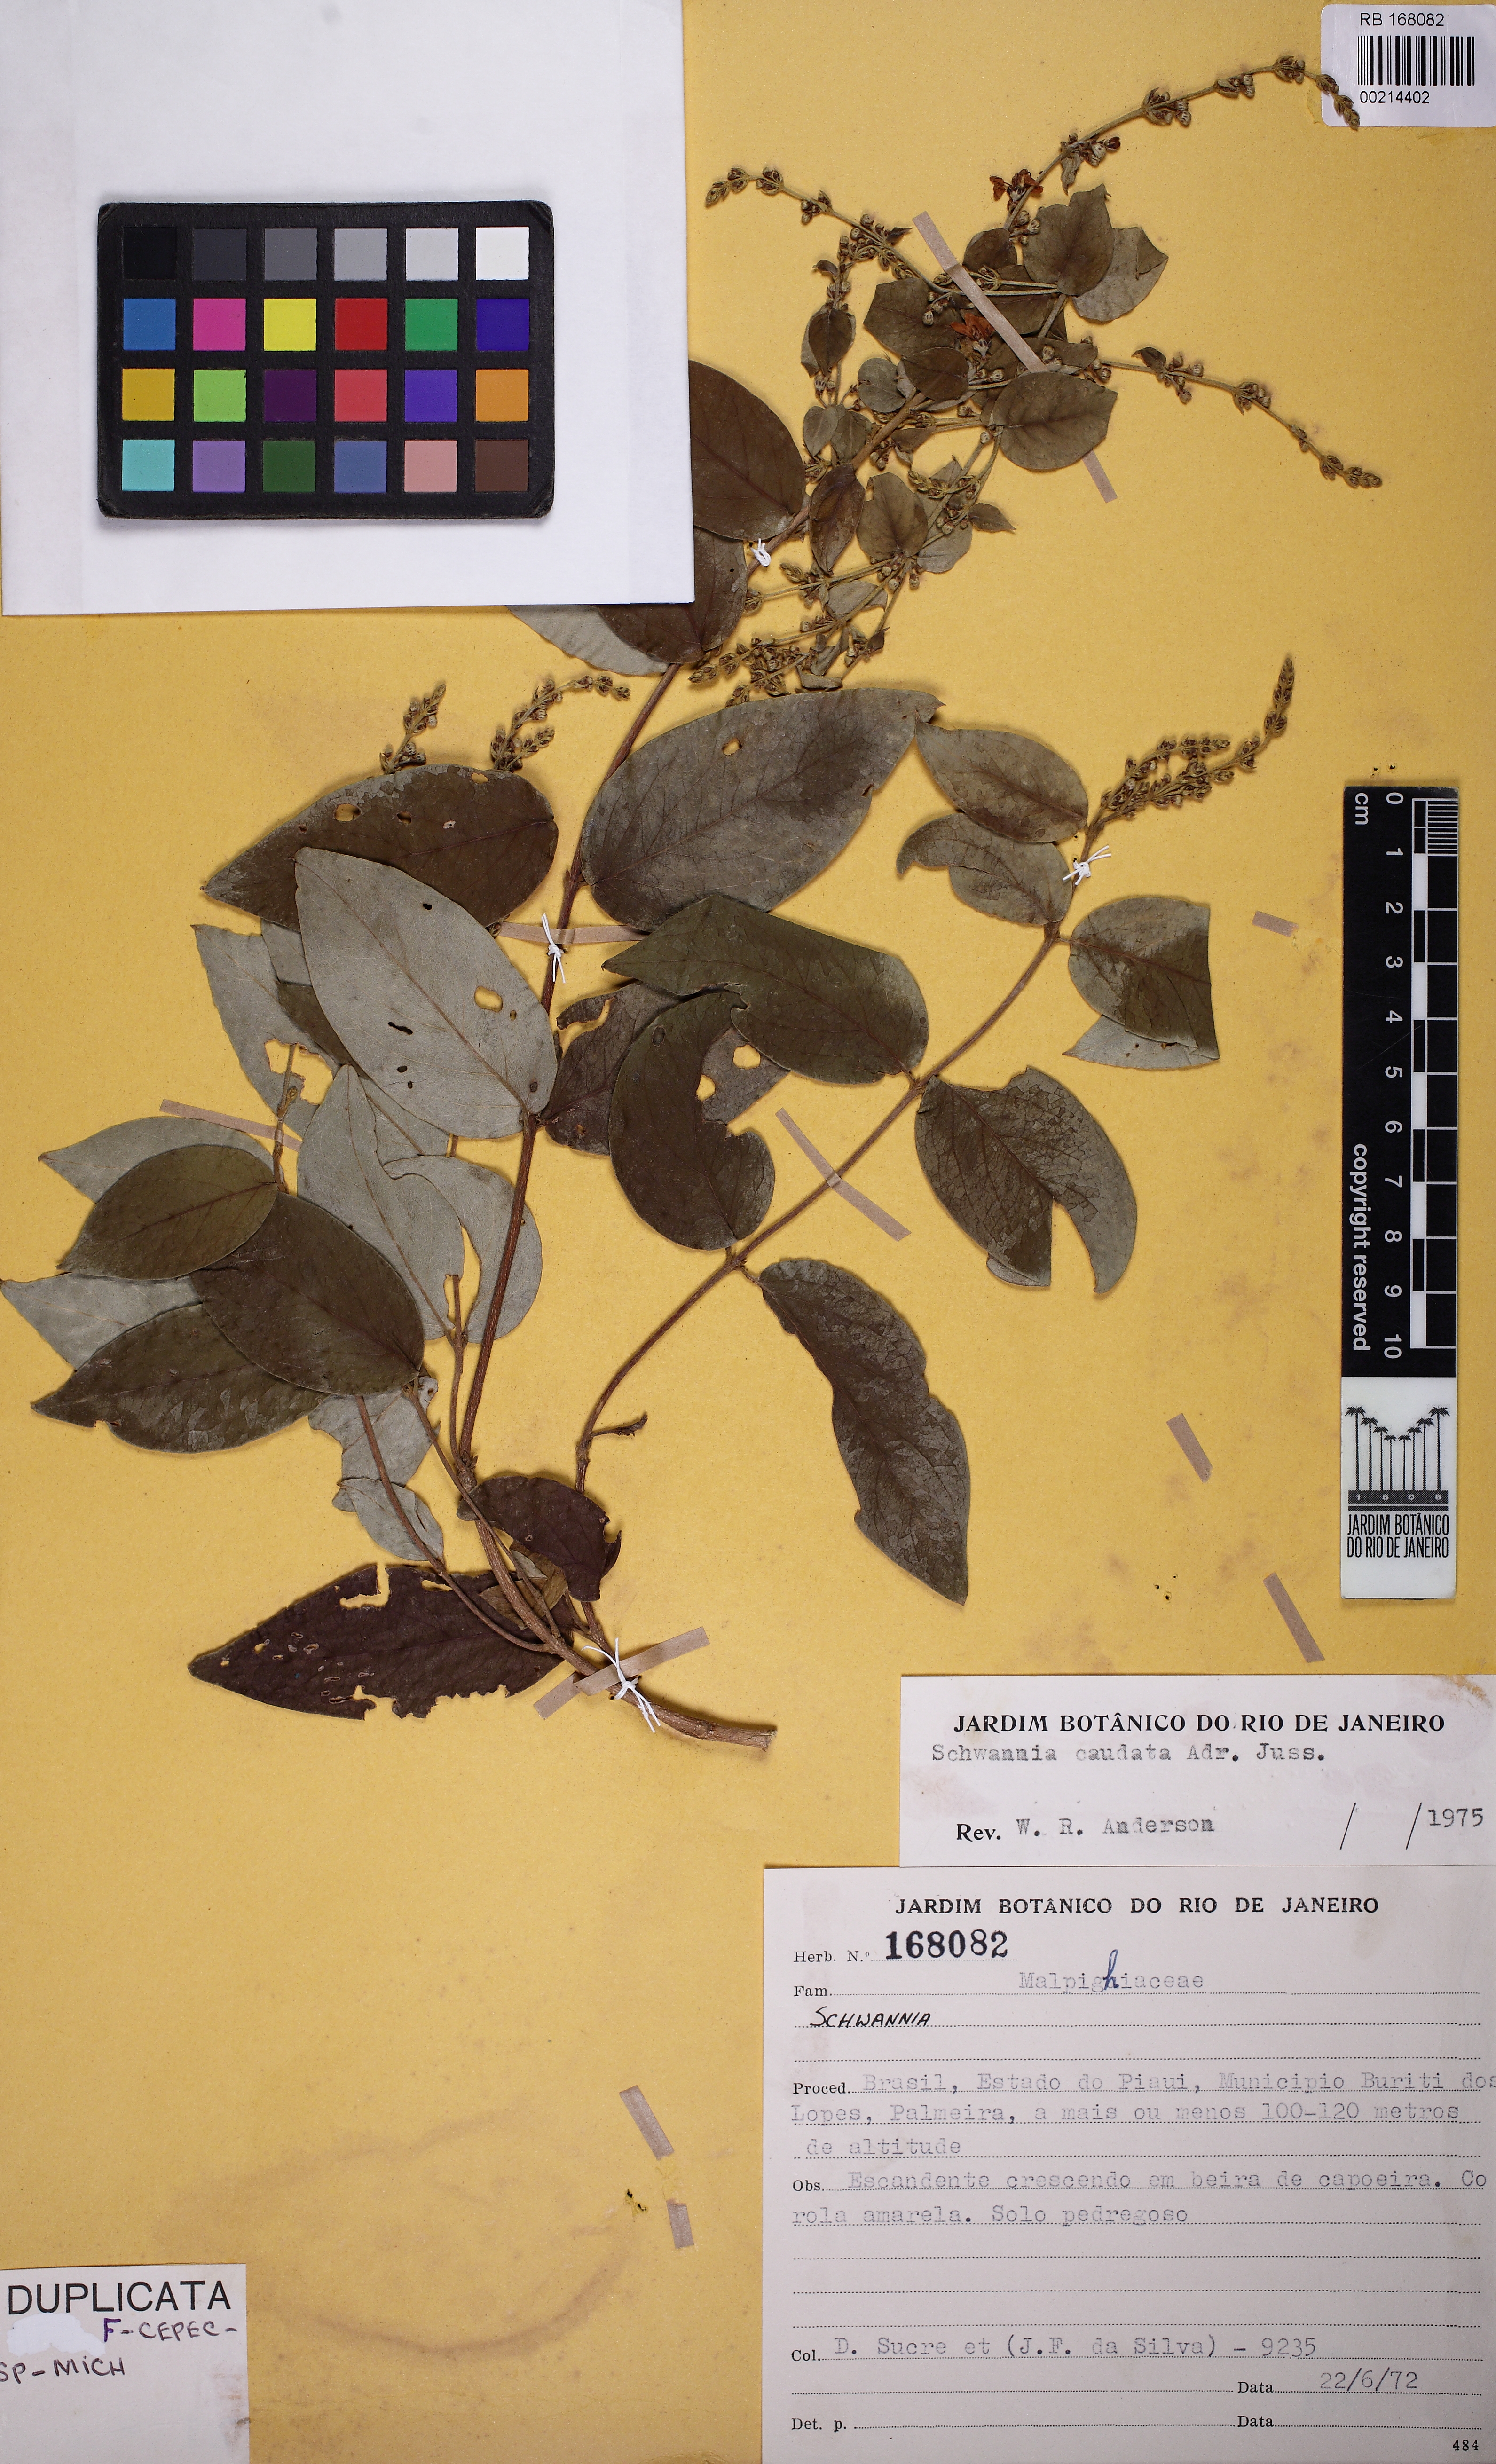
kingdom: Plantae
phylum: Tracheophyta
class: Magnoliopsida
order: Malpighiales
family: Malpighiaceae
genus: Janusia
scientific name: Janusia caudata
